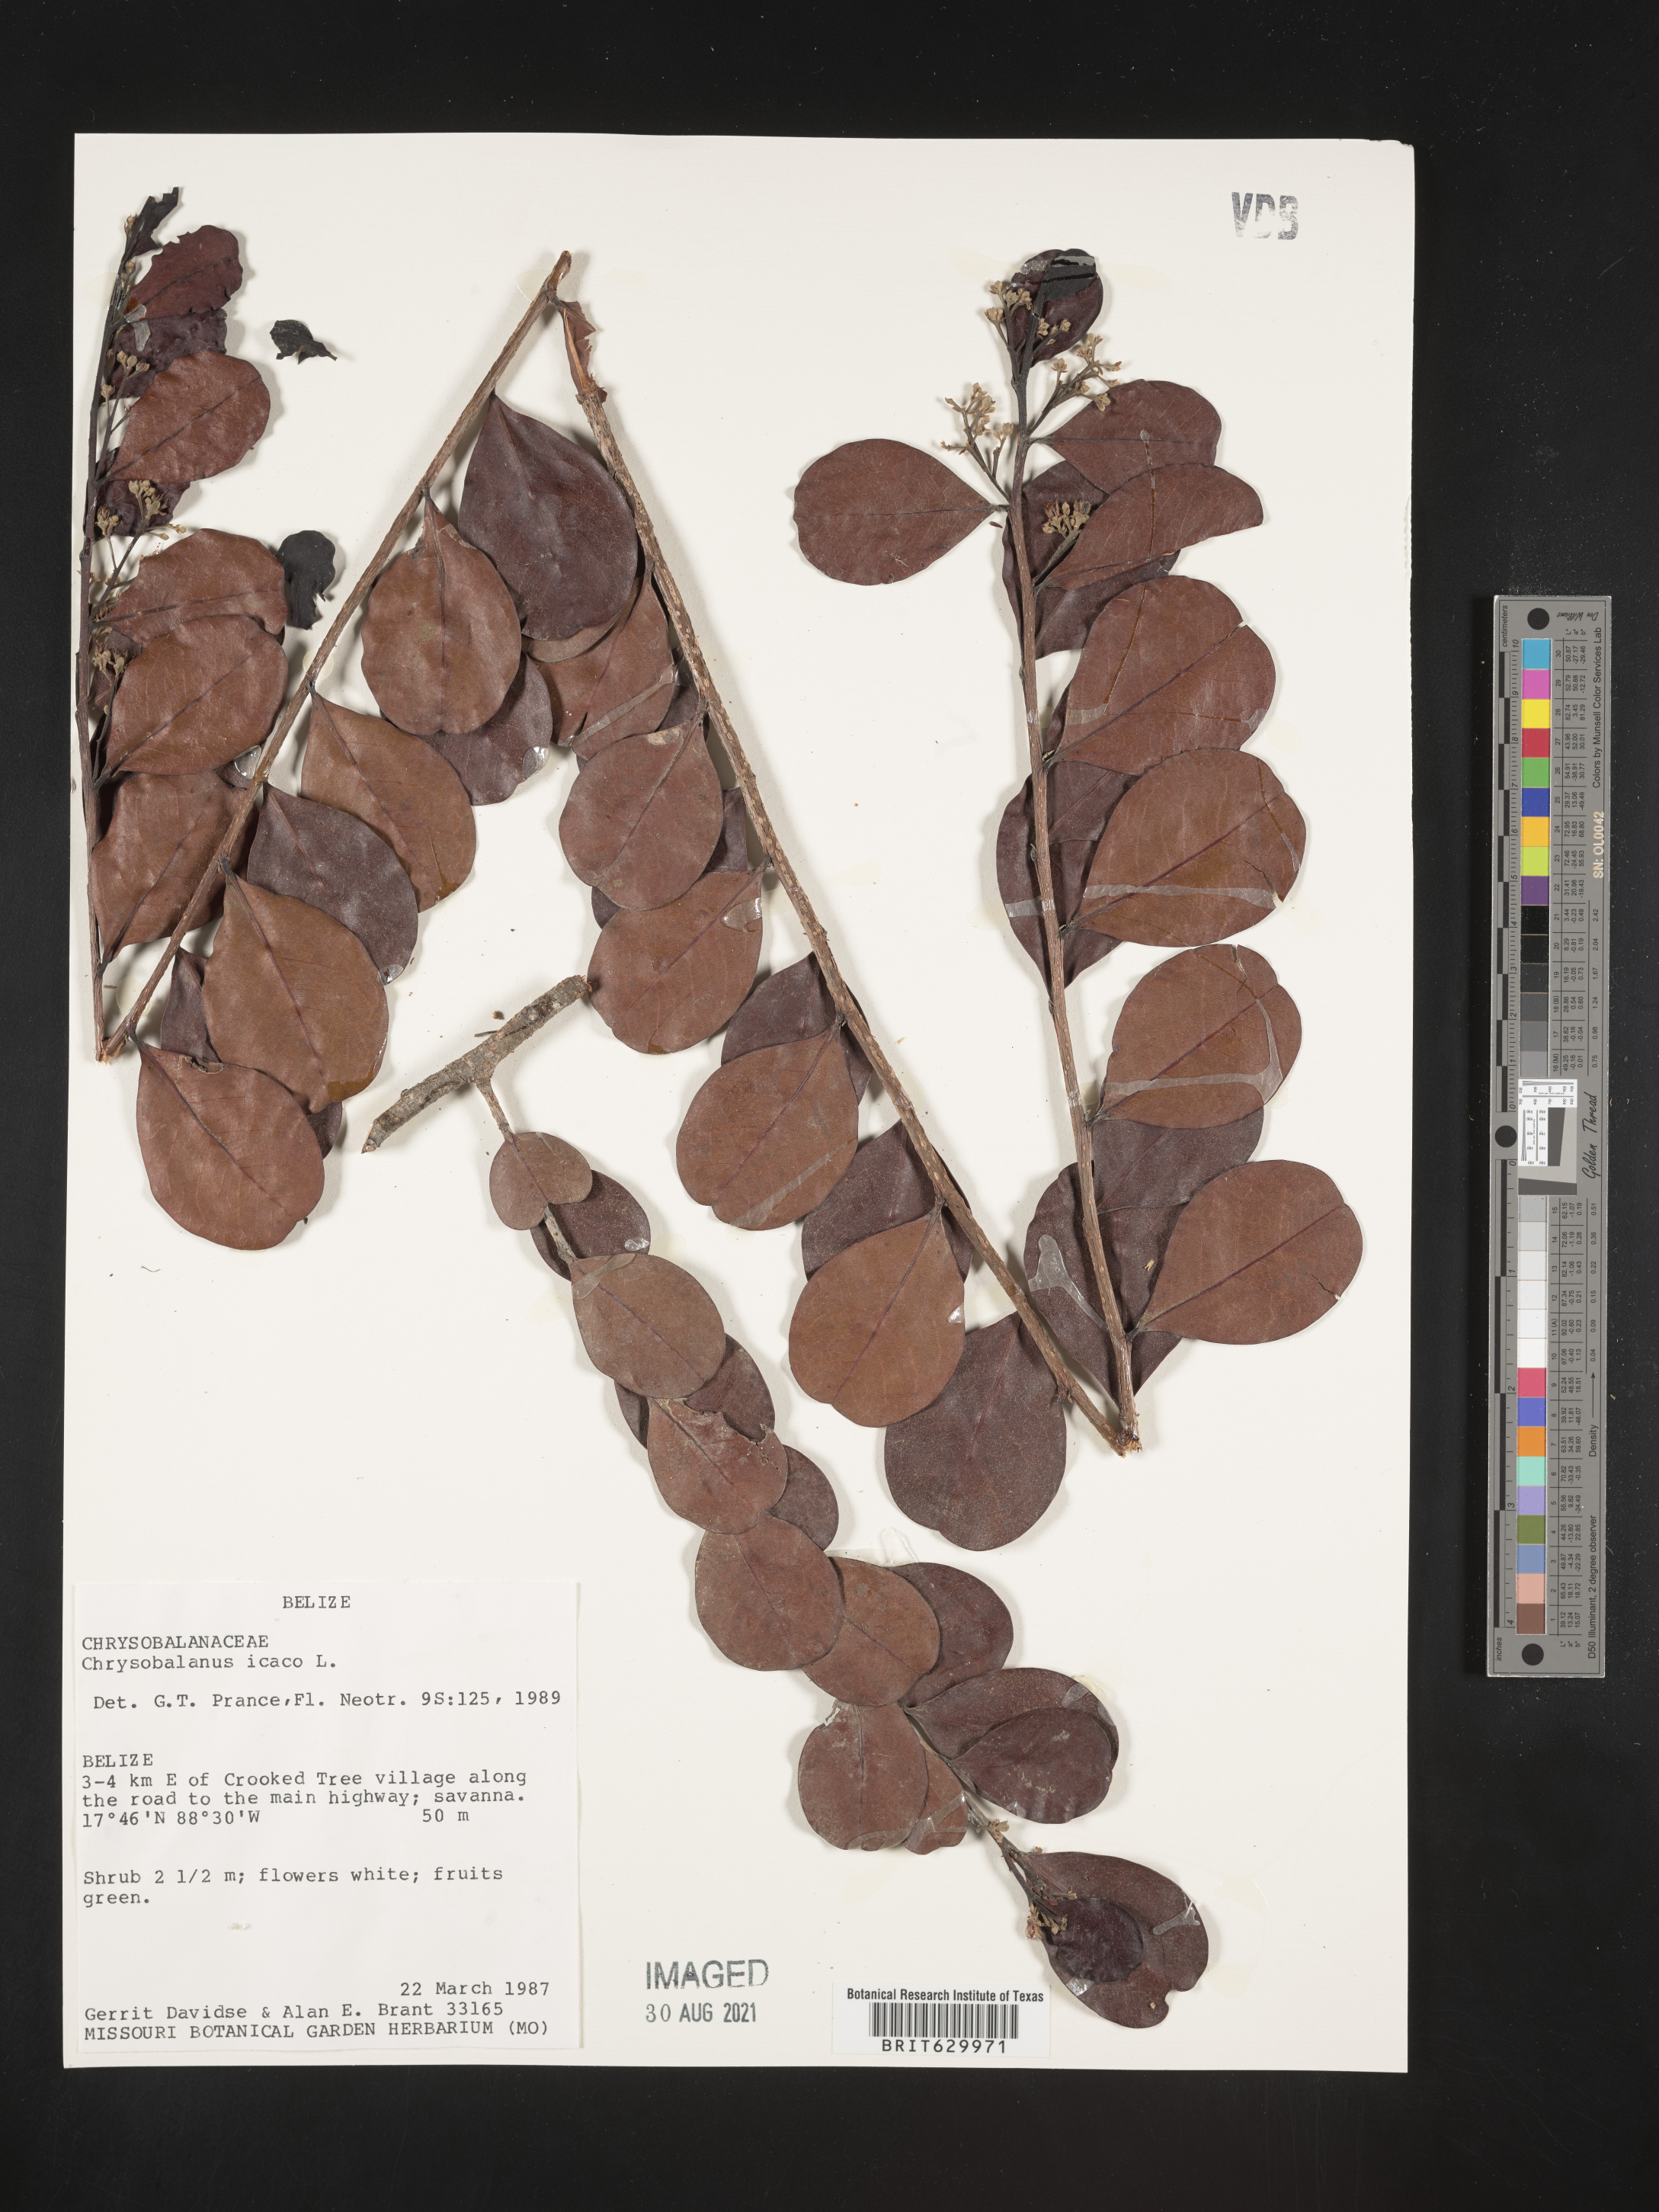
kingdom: Plantae
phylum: Tracheophyta
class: Magnoliopsida
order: Malpighiales
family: Chrysobalanaceae
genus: Chrysobalanus
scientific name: Chrysobalanus icaco
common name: Coco plum
